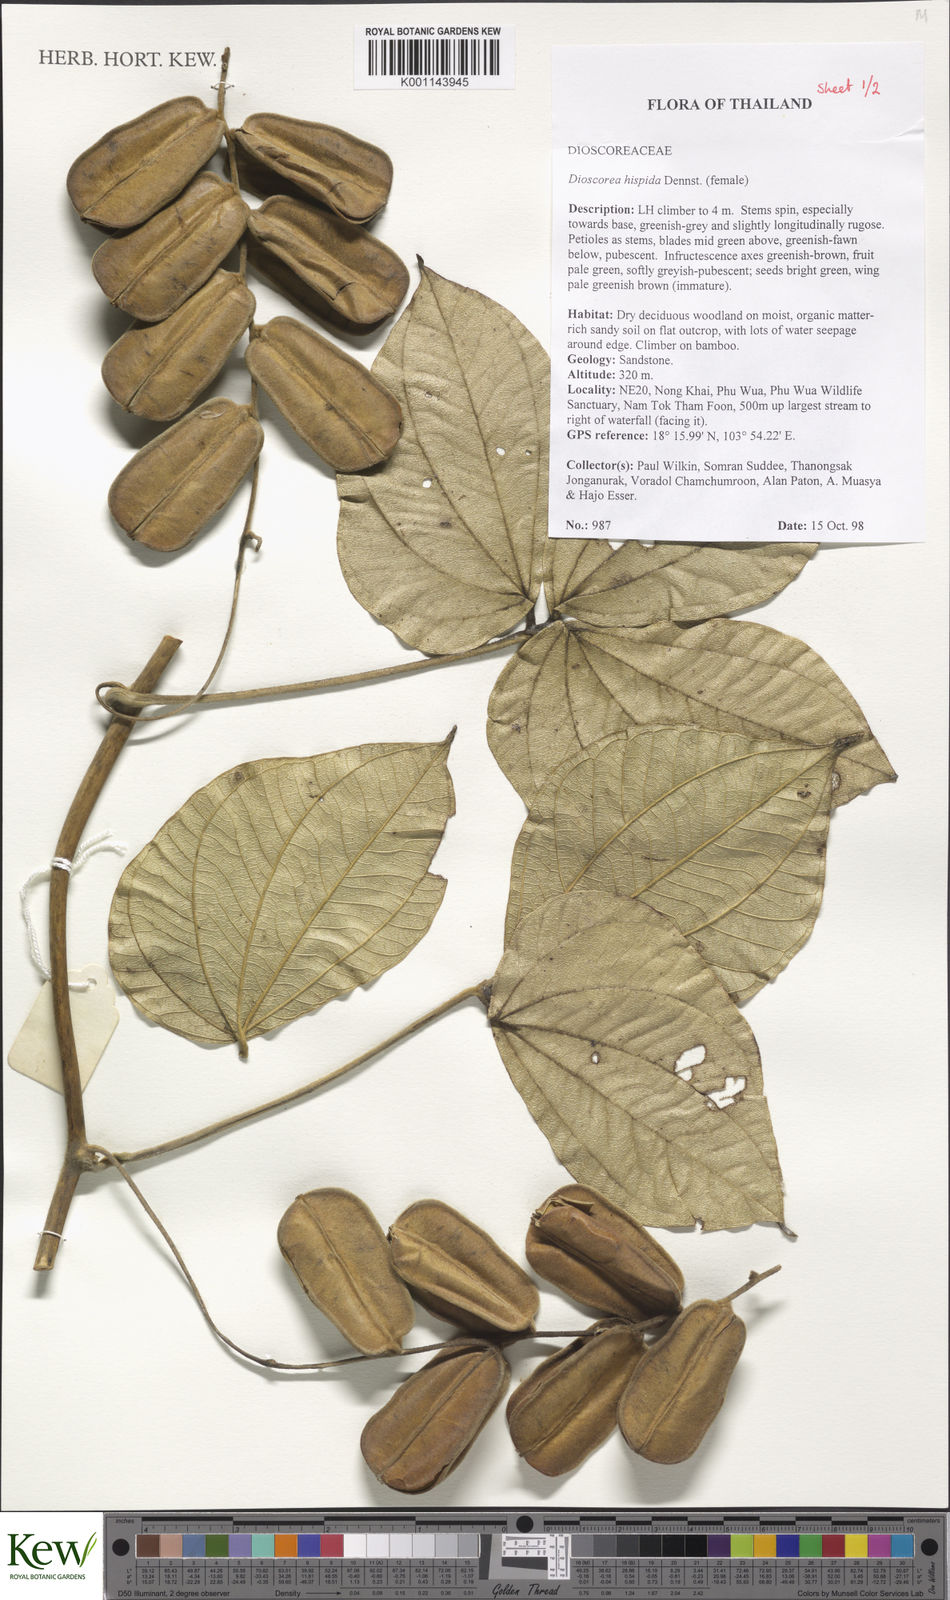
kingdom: Plantae
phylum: Tracheophyta
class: Liliopsida
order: Dioscoreales
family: Dioscoreaceae
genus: Dioscorea
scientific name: Dioscorea hispida
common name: Asiatic bitter yam
